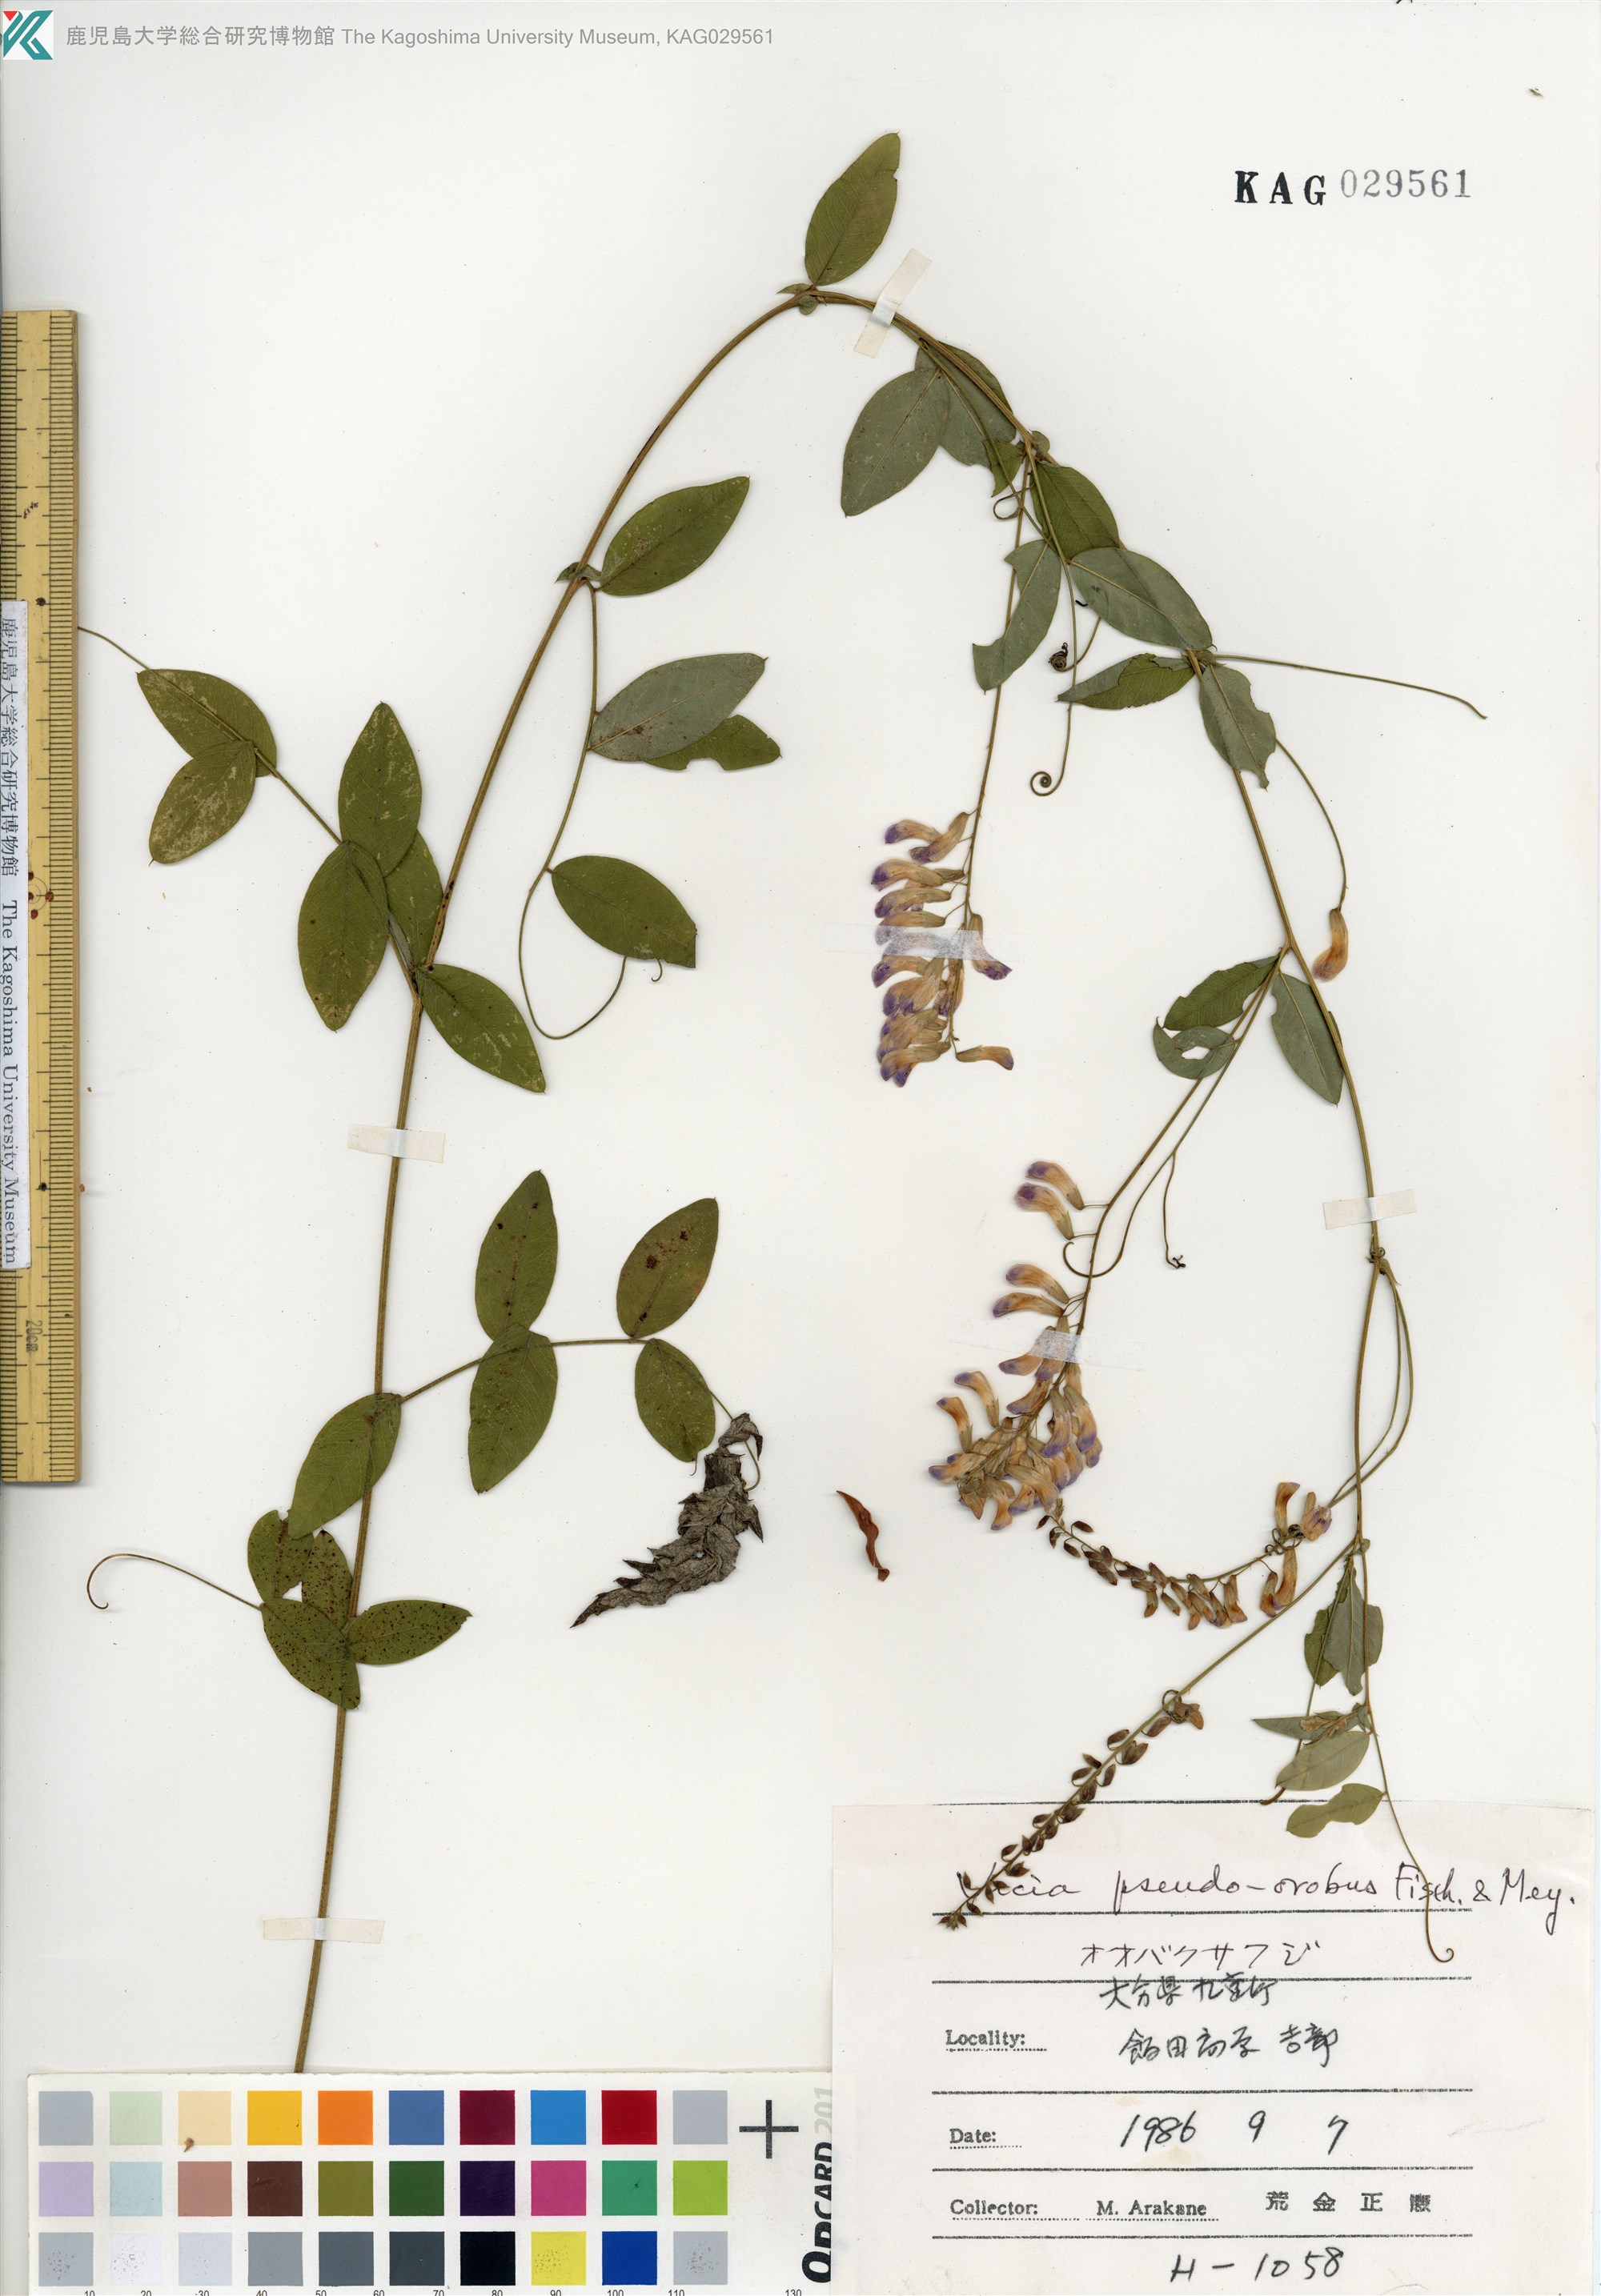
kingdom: Plantae
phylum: Tracheophyta
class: Magnoliopsida
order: Fabales
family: Fabaceae
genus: Vicia
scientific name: Vicia pseudo-orobus
